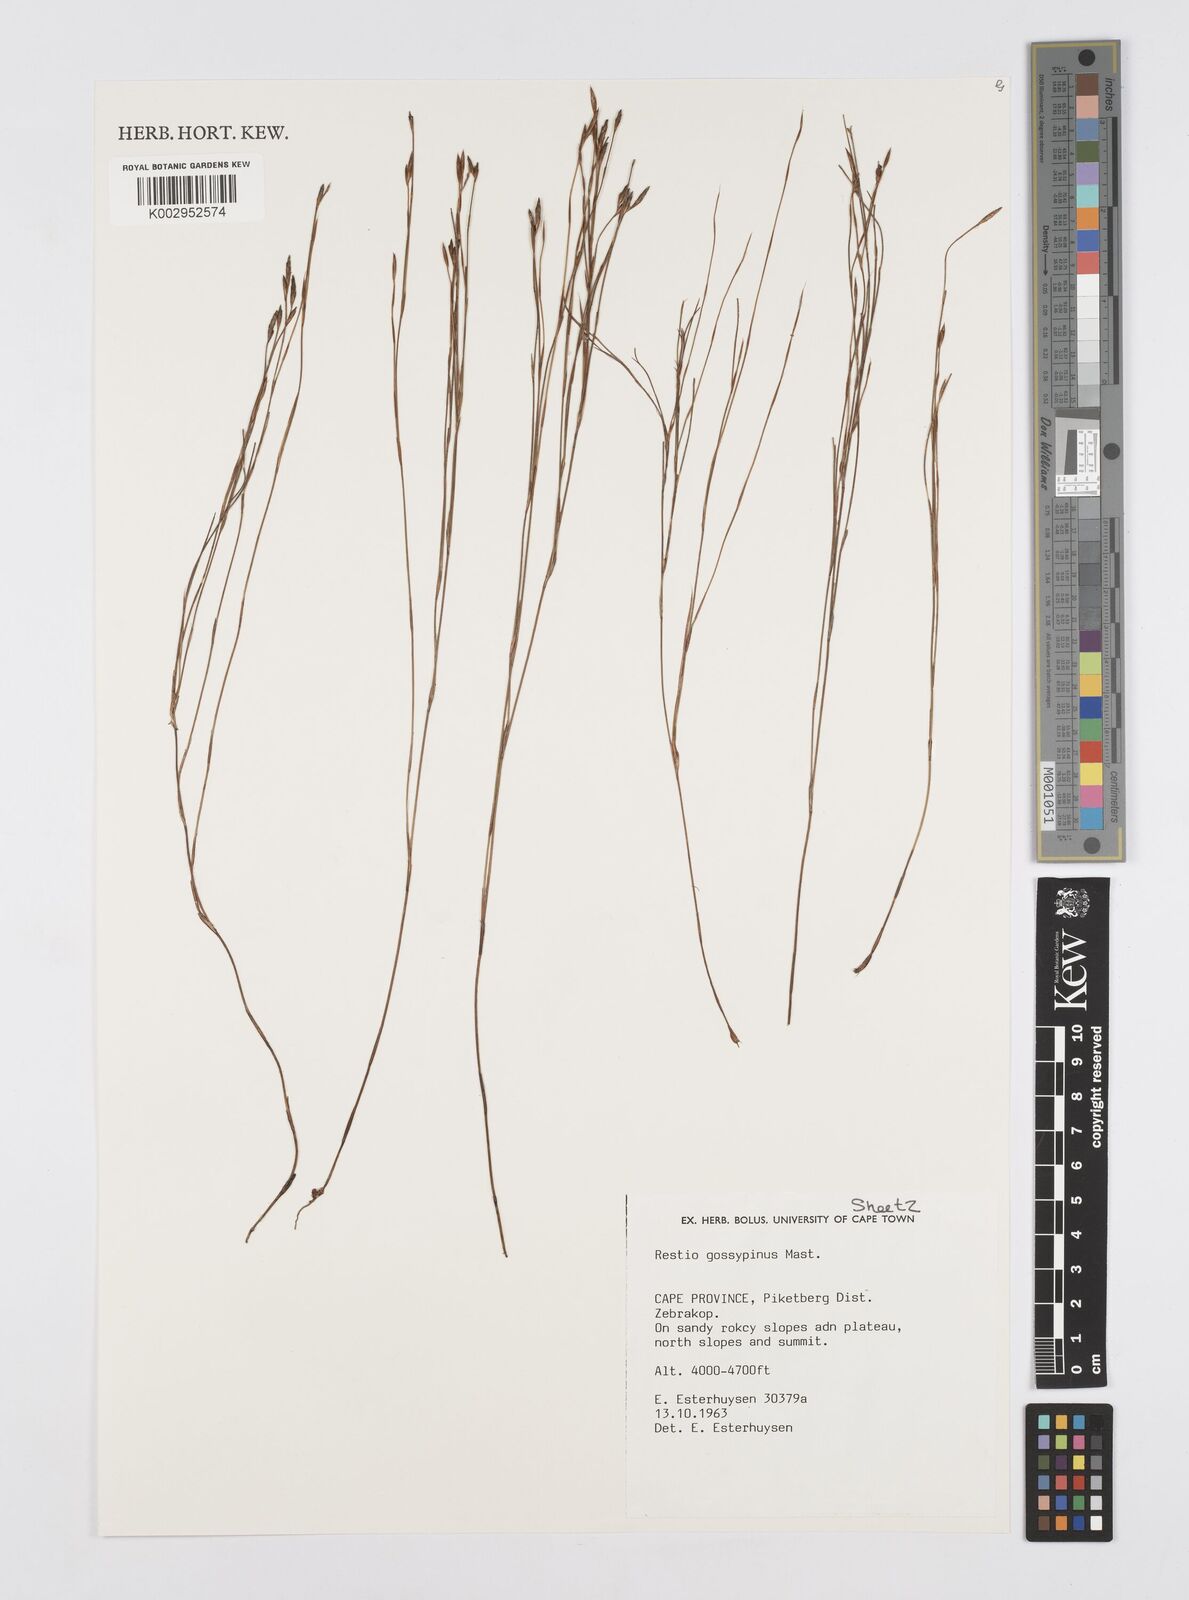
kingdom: Plantae
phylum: Tracheophyta
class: Liliopsida
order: Poales
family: Restionaceae
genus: Restio
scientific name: Restio gossypinus
